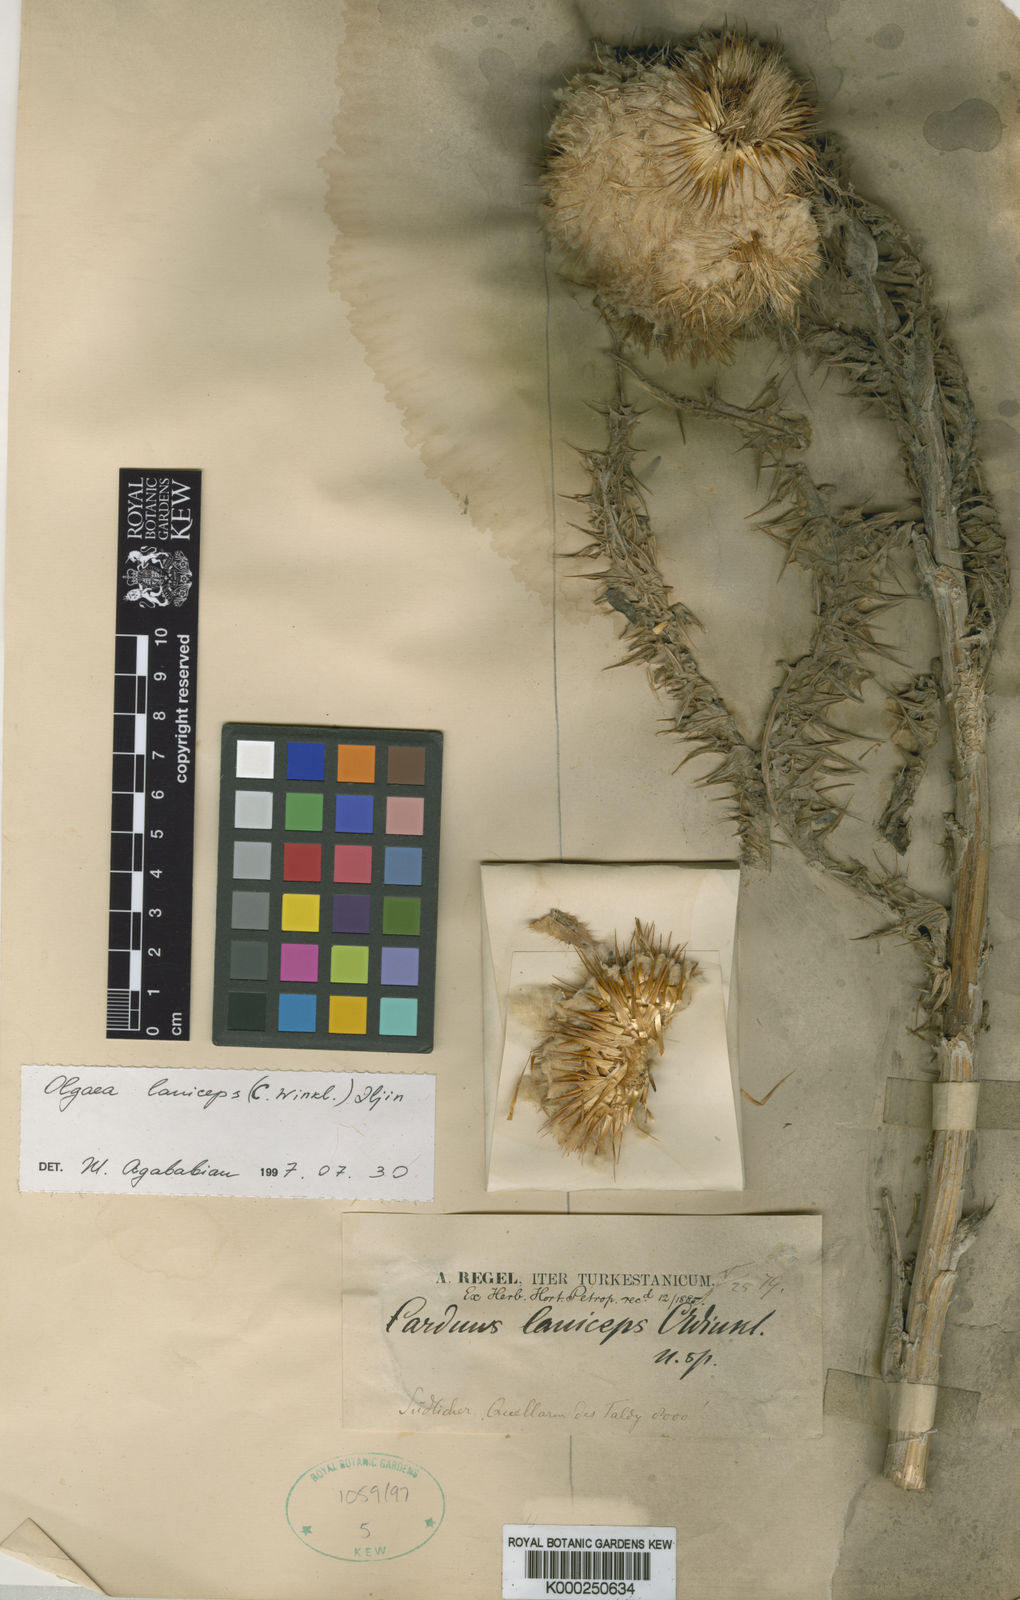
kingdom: Plantae
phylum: Tracheophyta
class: Magnoliopsida
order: Asterales
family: Asteraceae
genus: Olgaea
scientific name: Olgaea laniceps
